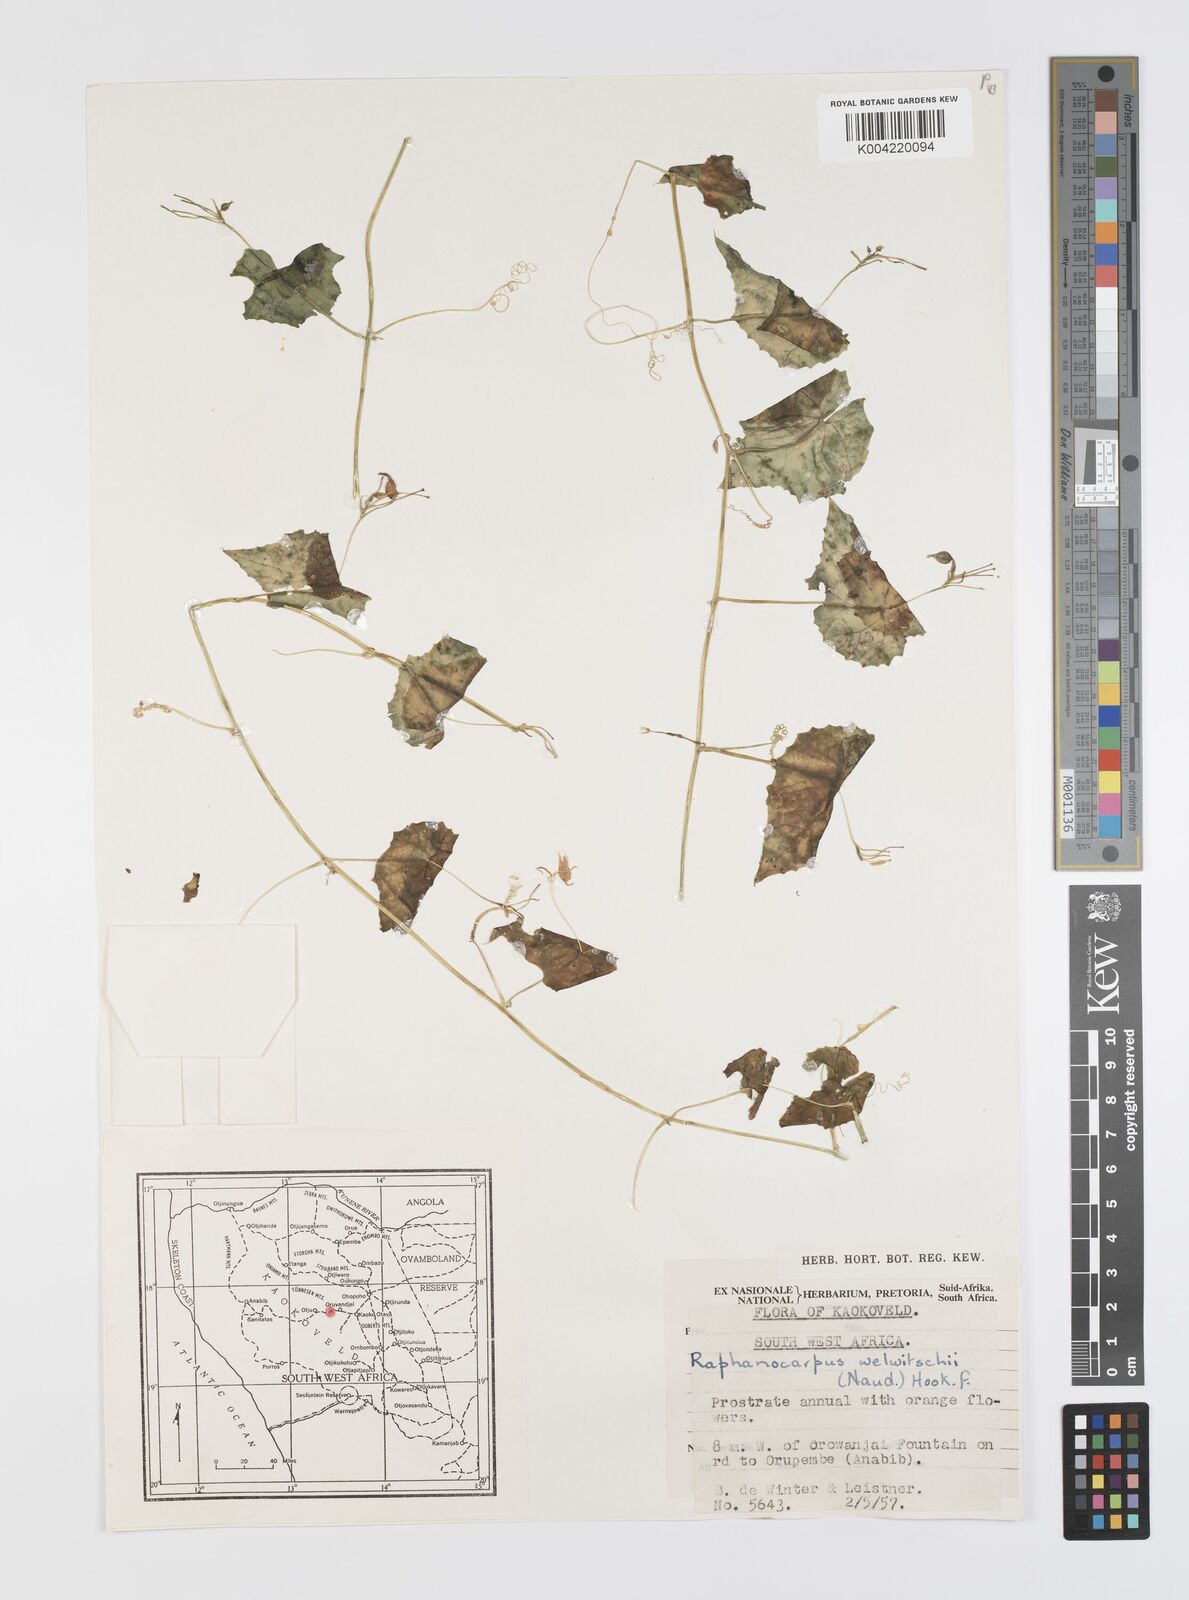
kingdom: Plantae
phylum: Tracheophyta
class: Magnoliopsida
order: Cucurbitales
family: Cucurbitaceae
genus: Momordica
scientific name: Momordica
